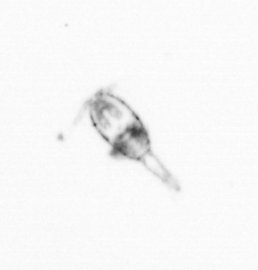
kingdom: Animalia
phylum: Arthropoda
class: Copepoda
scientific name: Copepoda
